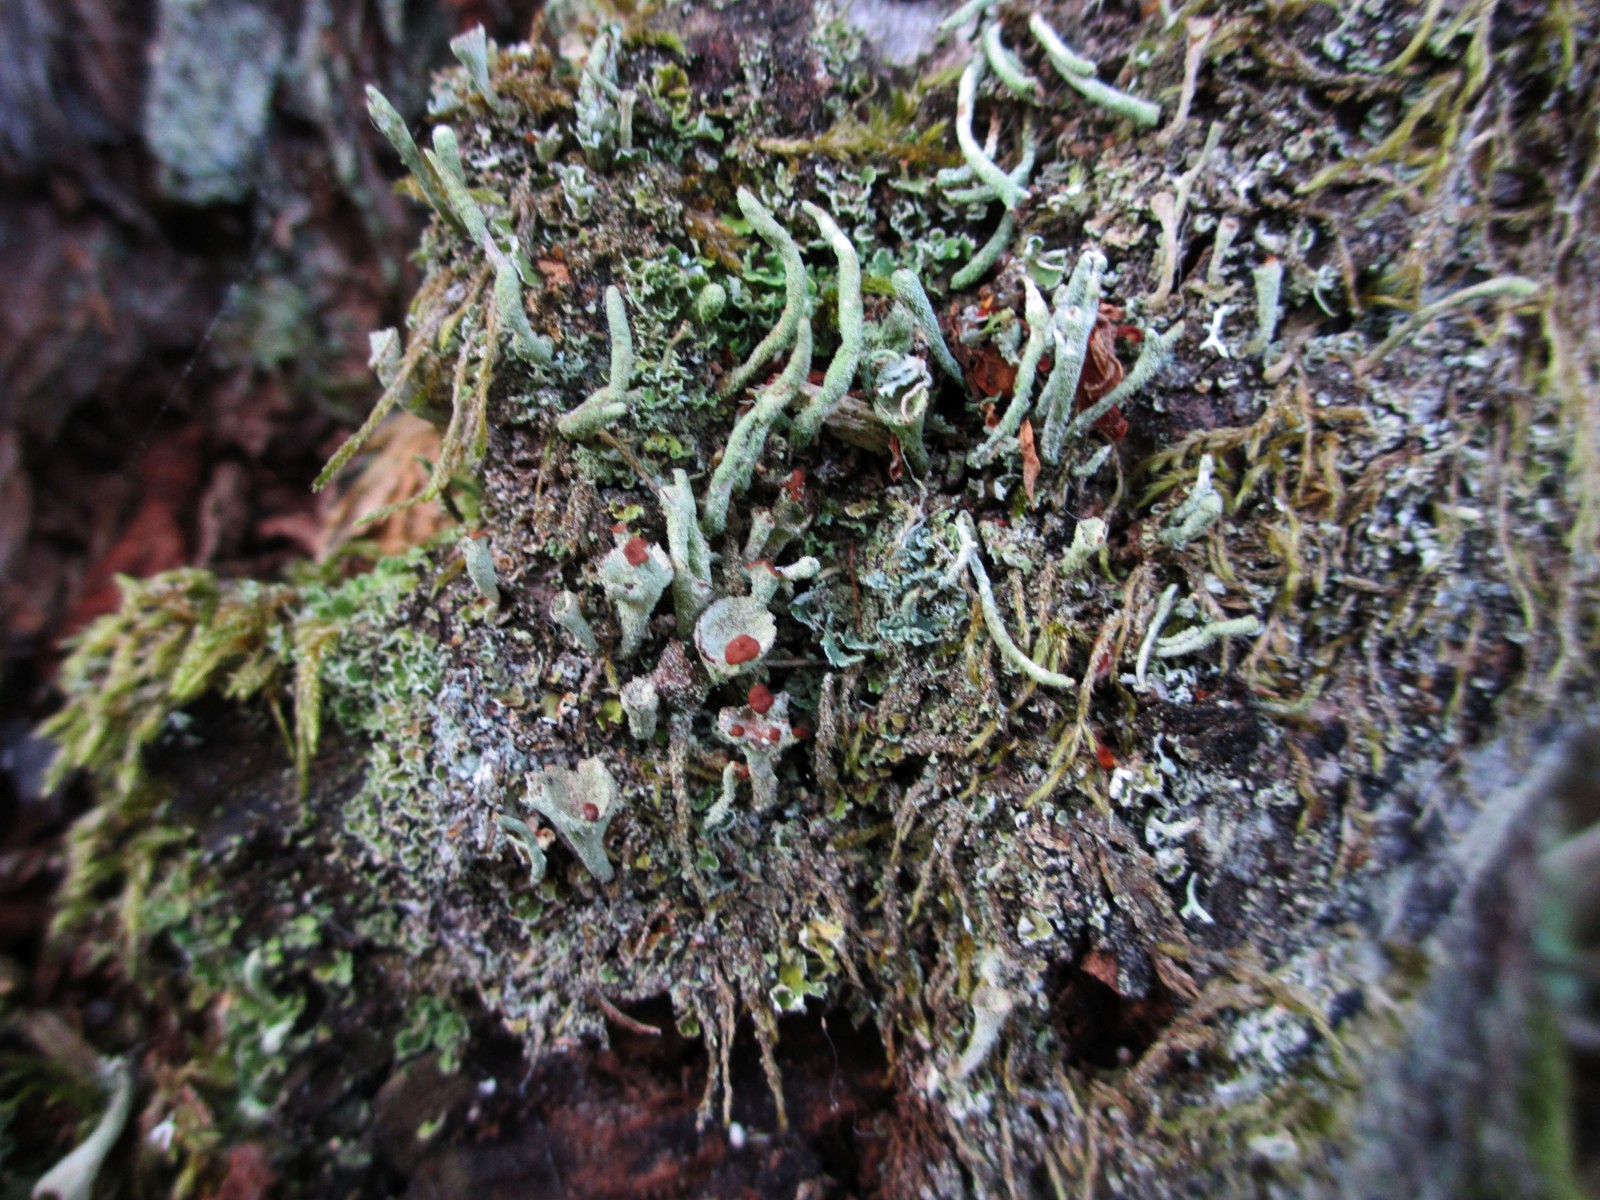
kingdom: Fungi
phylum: Ascomycota
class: Lecanoromycetes
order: Lecanorales
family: Cladoniaceae
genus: Cladonia
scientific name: Cladonia
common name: brungrøn bægerlav
